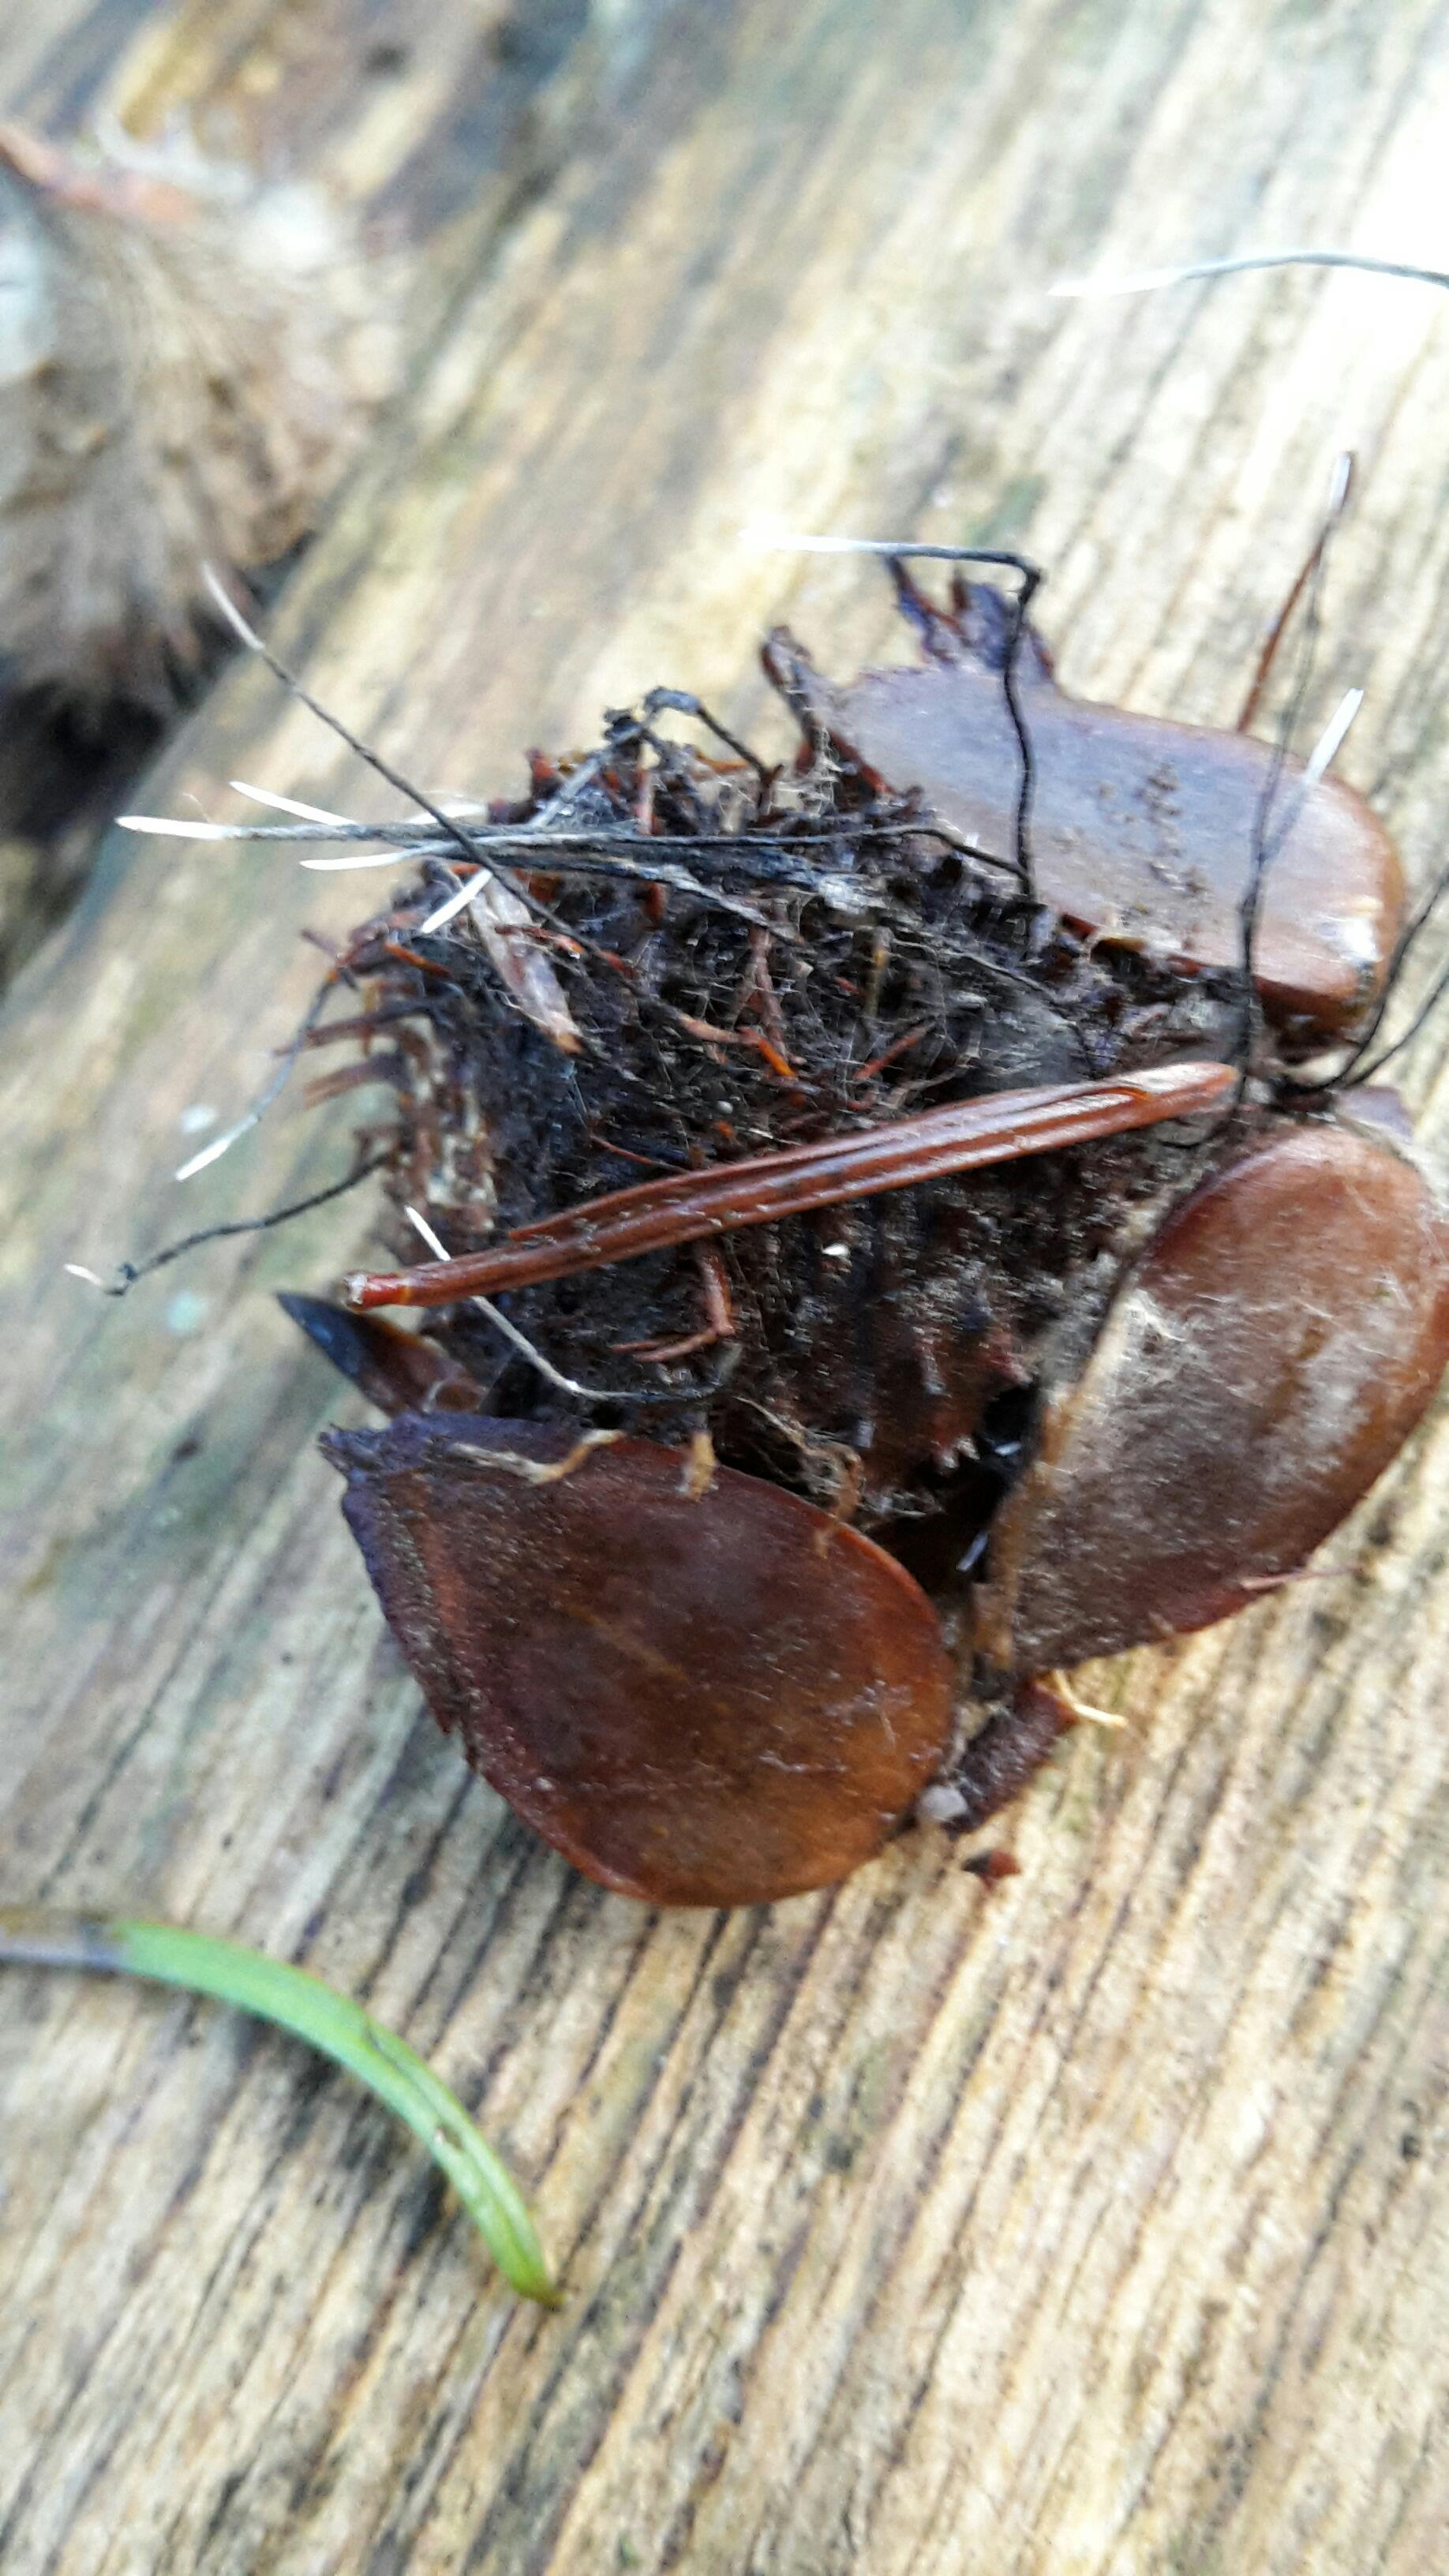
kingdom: Fungi
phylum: Ascomycota
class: Sordariomycetes
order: Xylariales
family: Xylariaceae
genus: Xylaria
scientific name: Xylaria carpophila
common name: bogskål-stødsvamp
